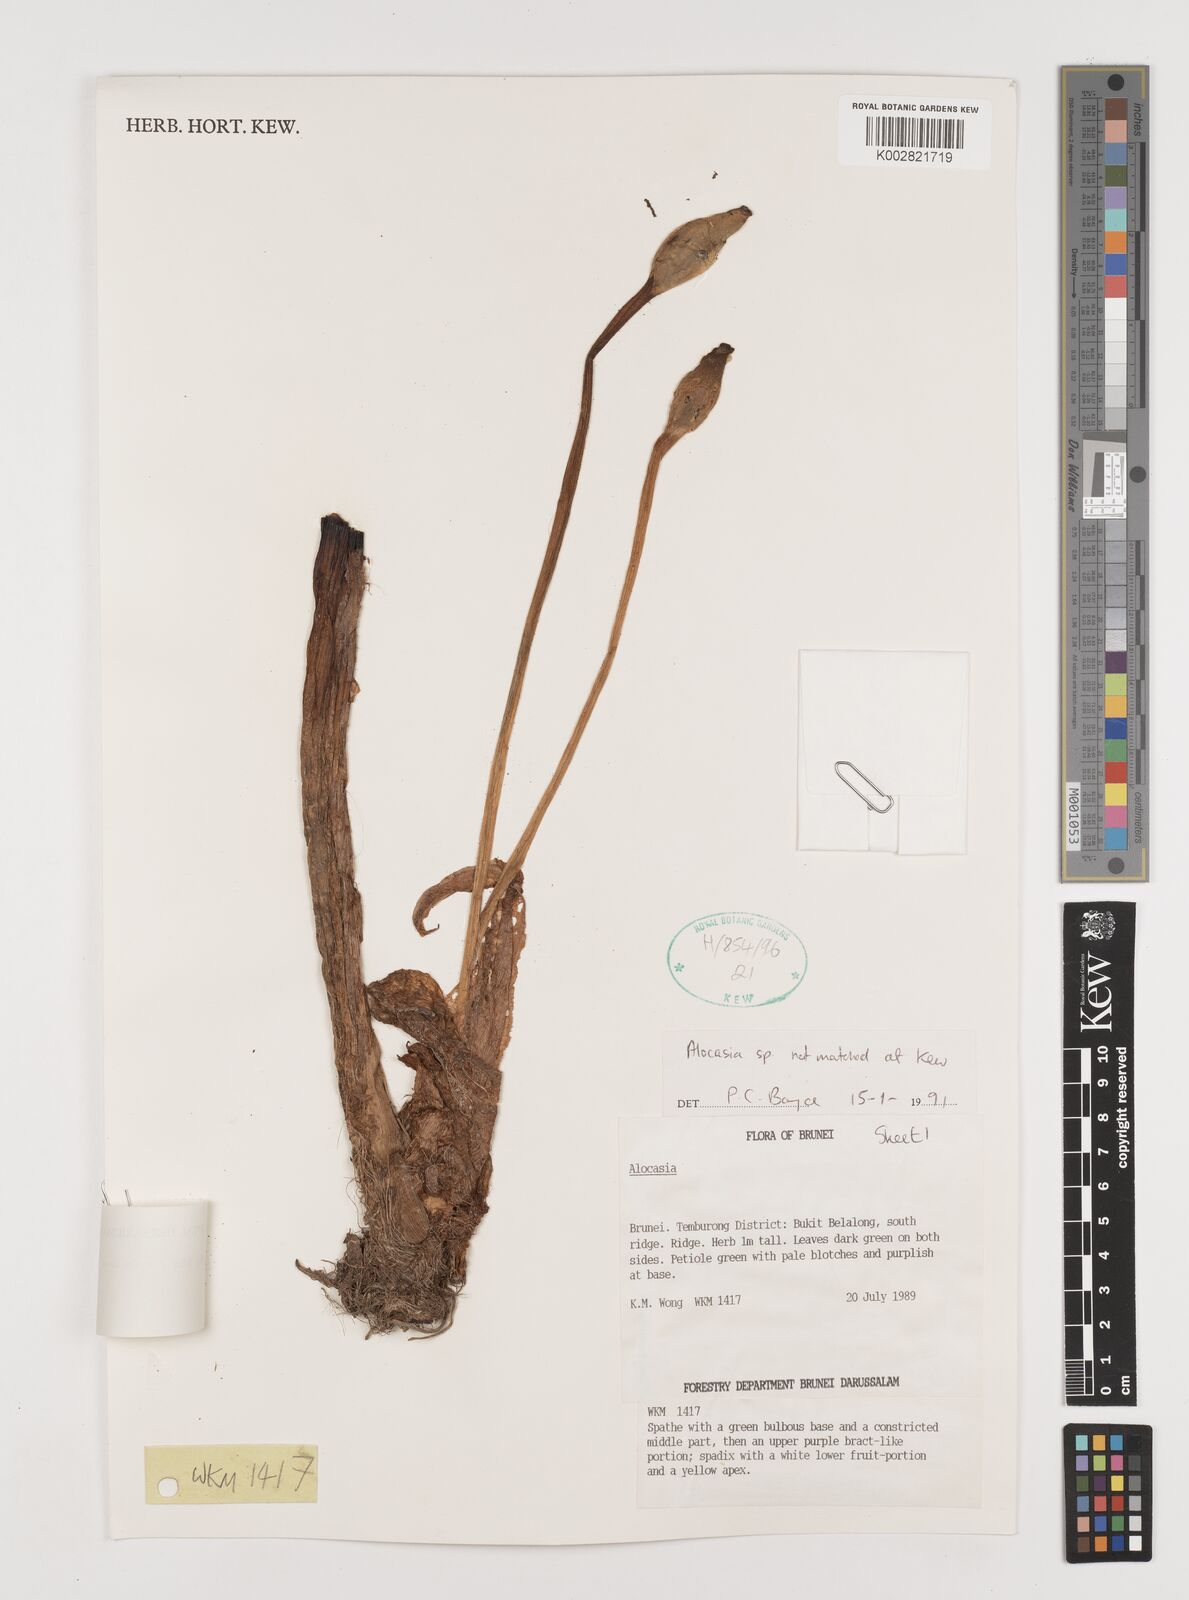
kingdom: Plantae
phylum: Tracheophyta
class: Liliopsida
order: Alismatales
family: Araceae
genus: Alocasia
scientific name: Alocasia longiloba
